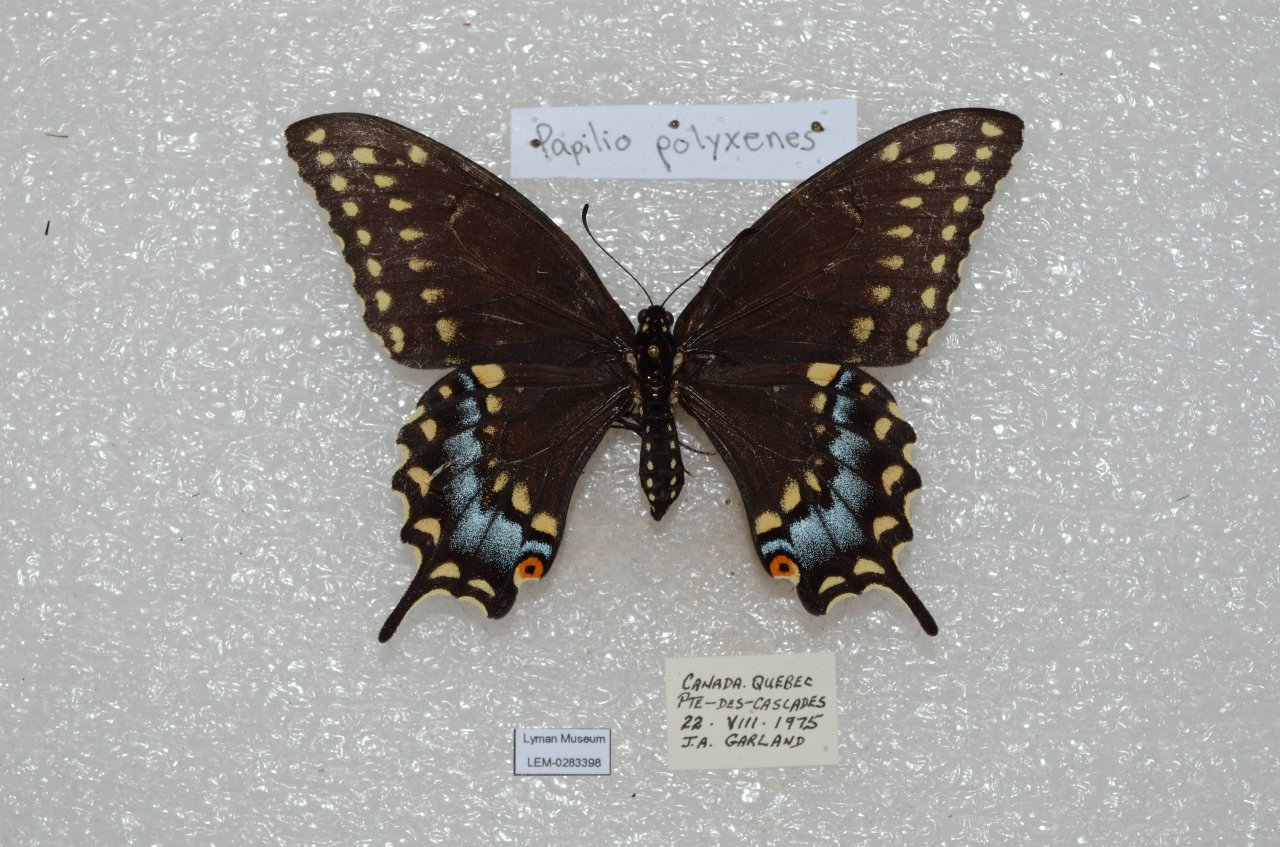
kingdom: Animalia
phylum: Arthropoda
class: Insecta
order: Lepidoptera
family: Papilionidae
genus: Papilio
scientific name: Papilio polyxenes
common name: Black Swallowtail
